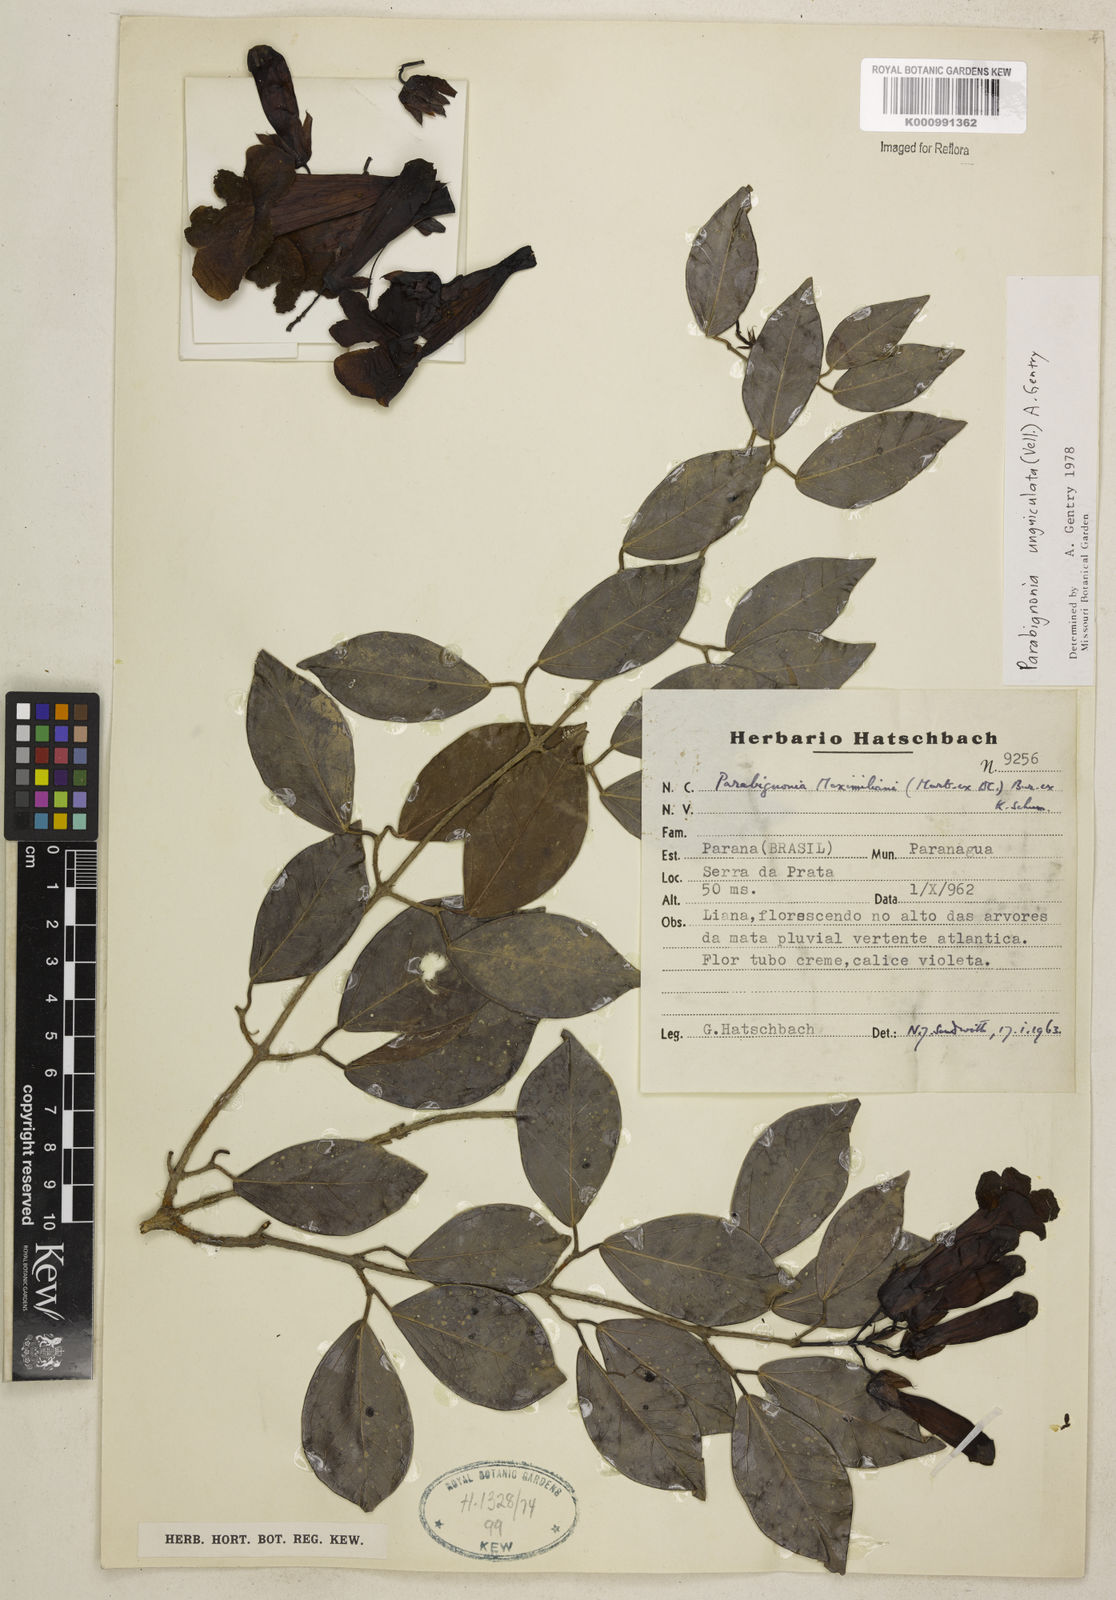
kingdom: Plantae
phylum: Tracheophyta
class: Magnoliopsida
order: Lamiales
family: Bignoniaceae
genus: Adenocalymma
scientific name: Adenocalymma
